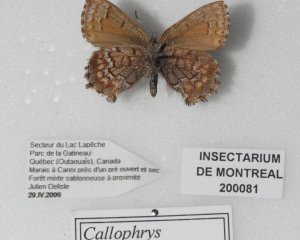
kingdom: Animalia
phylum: Arthropoda
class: Insecta
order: Lepidoptera
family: Lycaenidae
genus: Incisalia
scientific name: Incisalia niphon
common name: Eastern Pine Elfin
